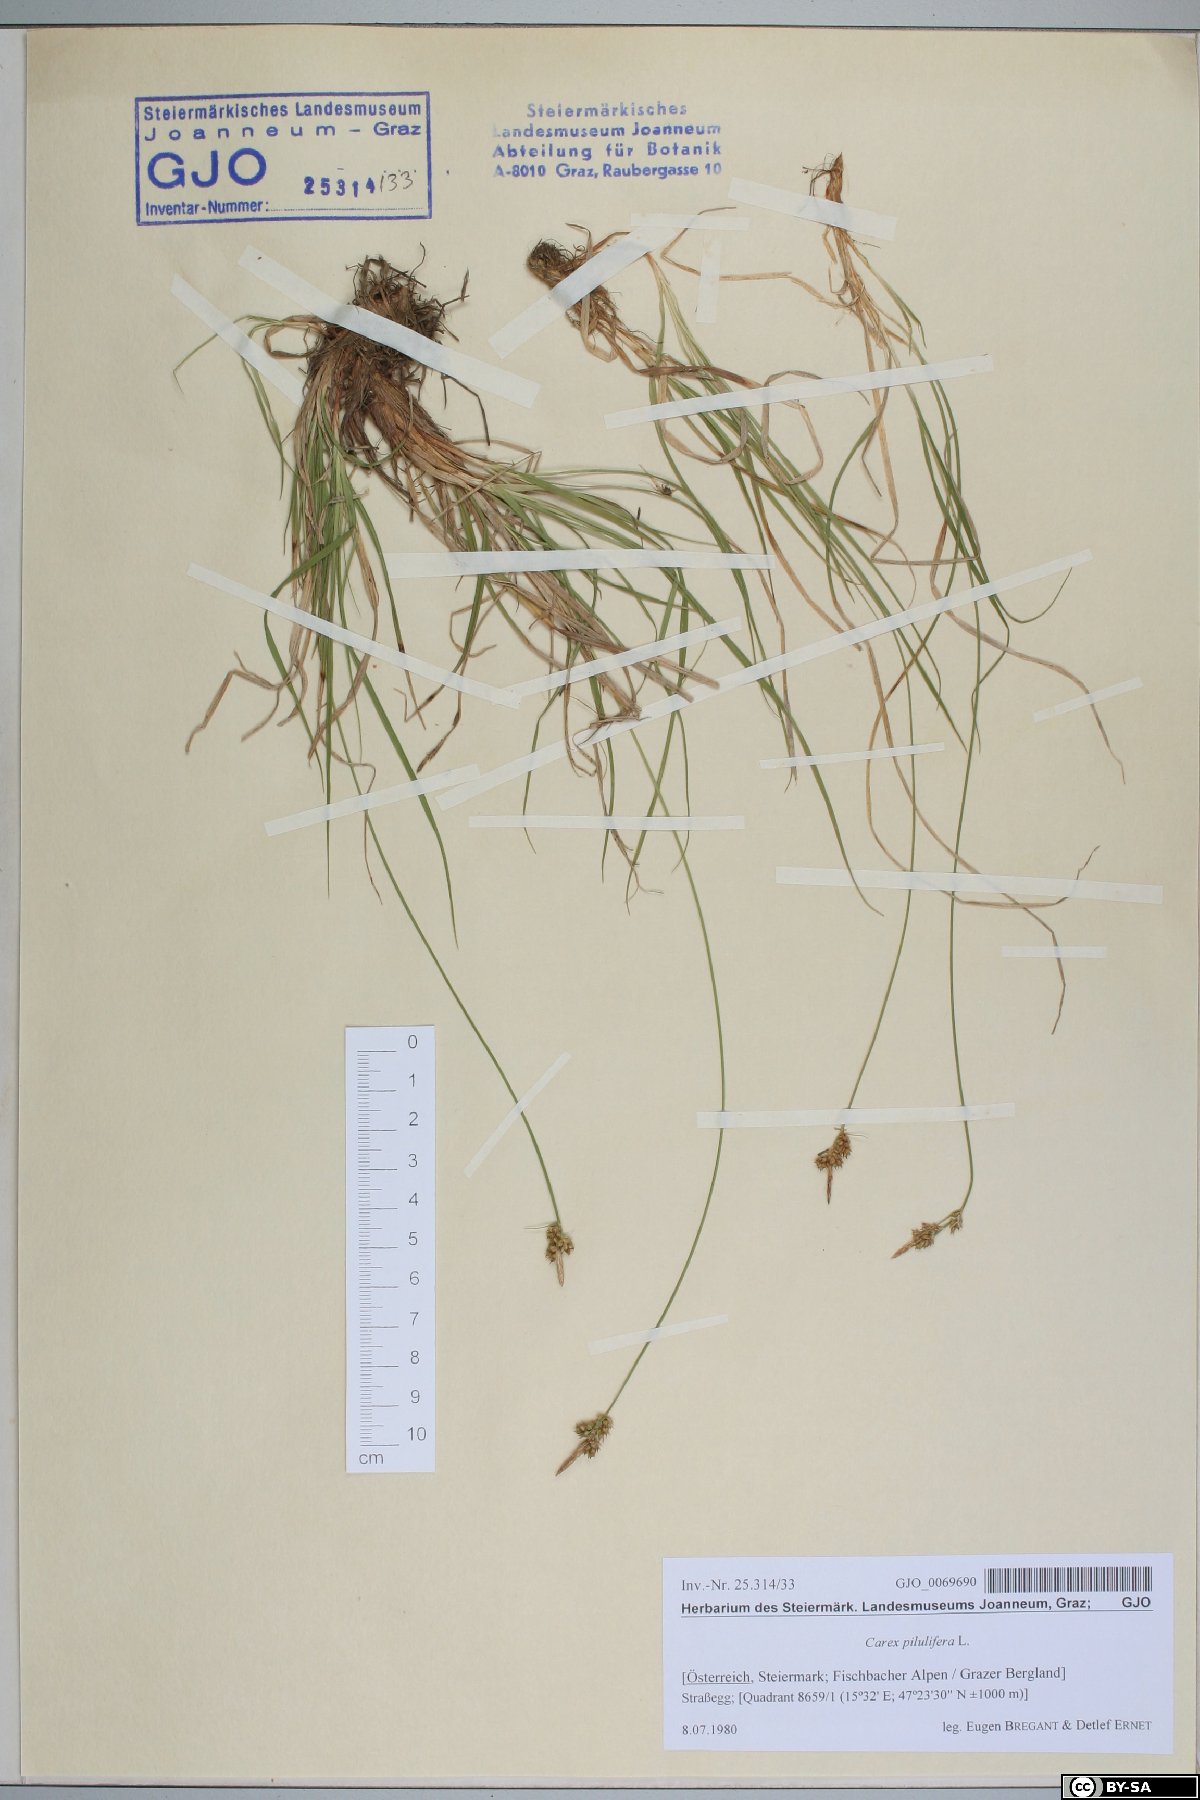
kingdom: Plantae
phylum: Tracheophyta
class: Liliopsida
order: Poales
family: Cyperaceae
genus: Carex
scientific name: Carex pilulifera
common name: Pill sedge
